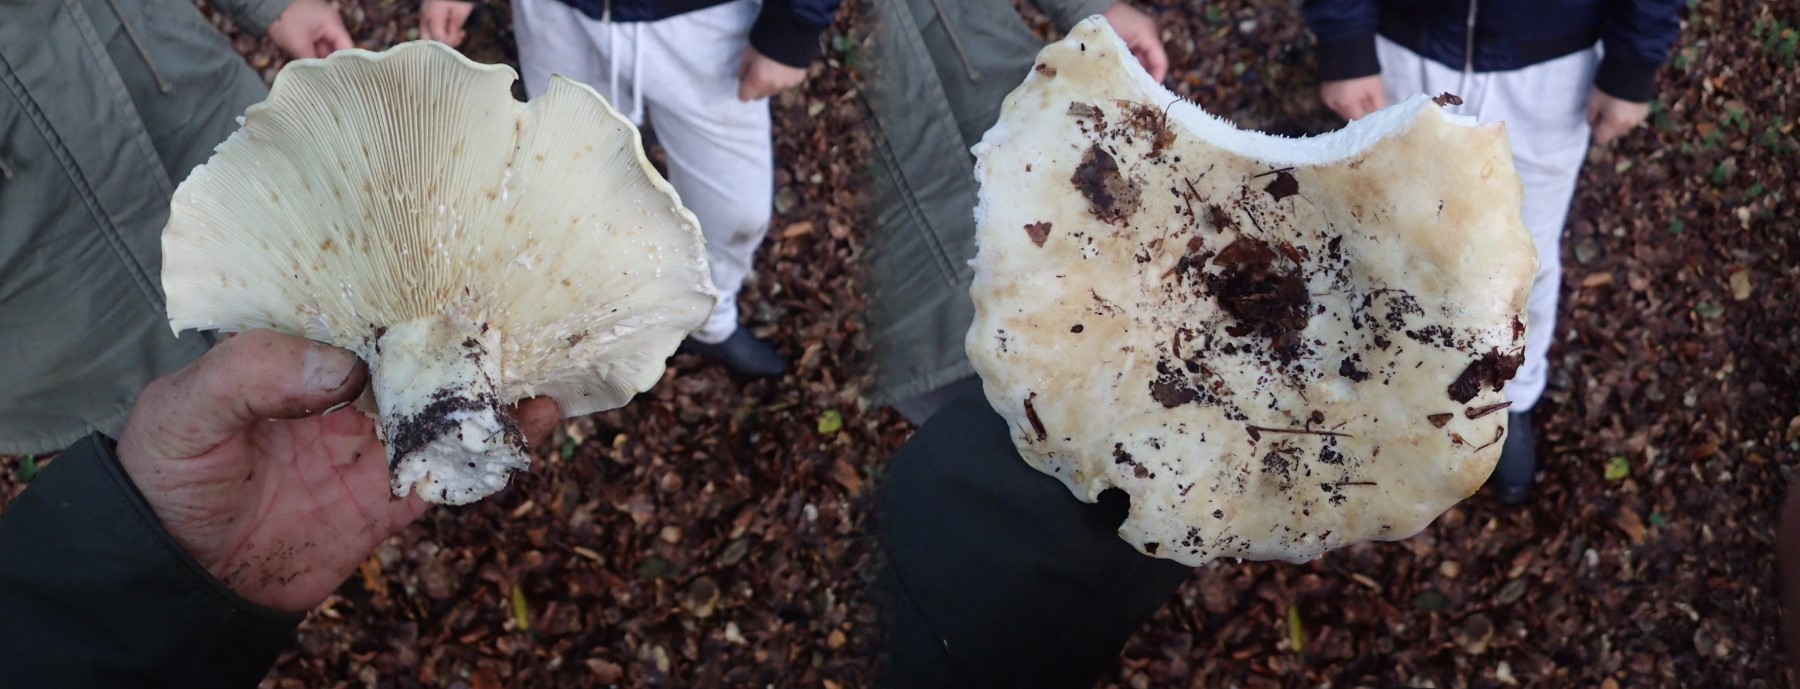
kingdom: Fungi
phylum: Basidiomycota
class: Agaricomycetes
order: Russulales
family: Russulaceae
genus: Lactifluus
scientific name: Lactifluus vellereus
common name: hvidfiltet mælkehat
